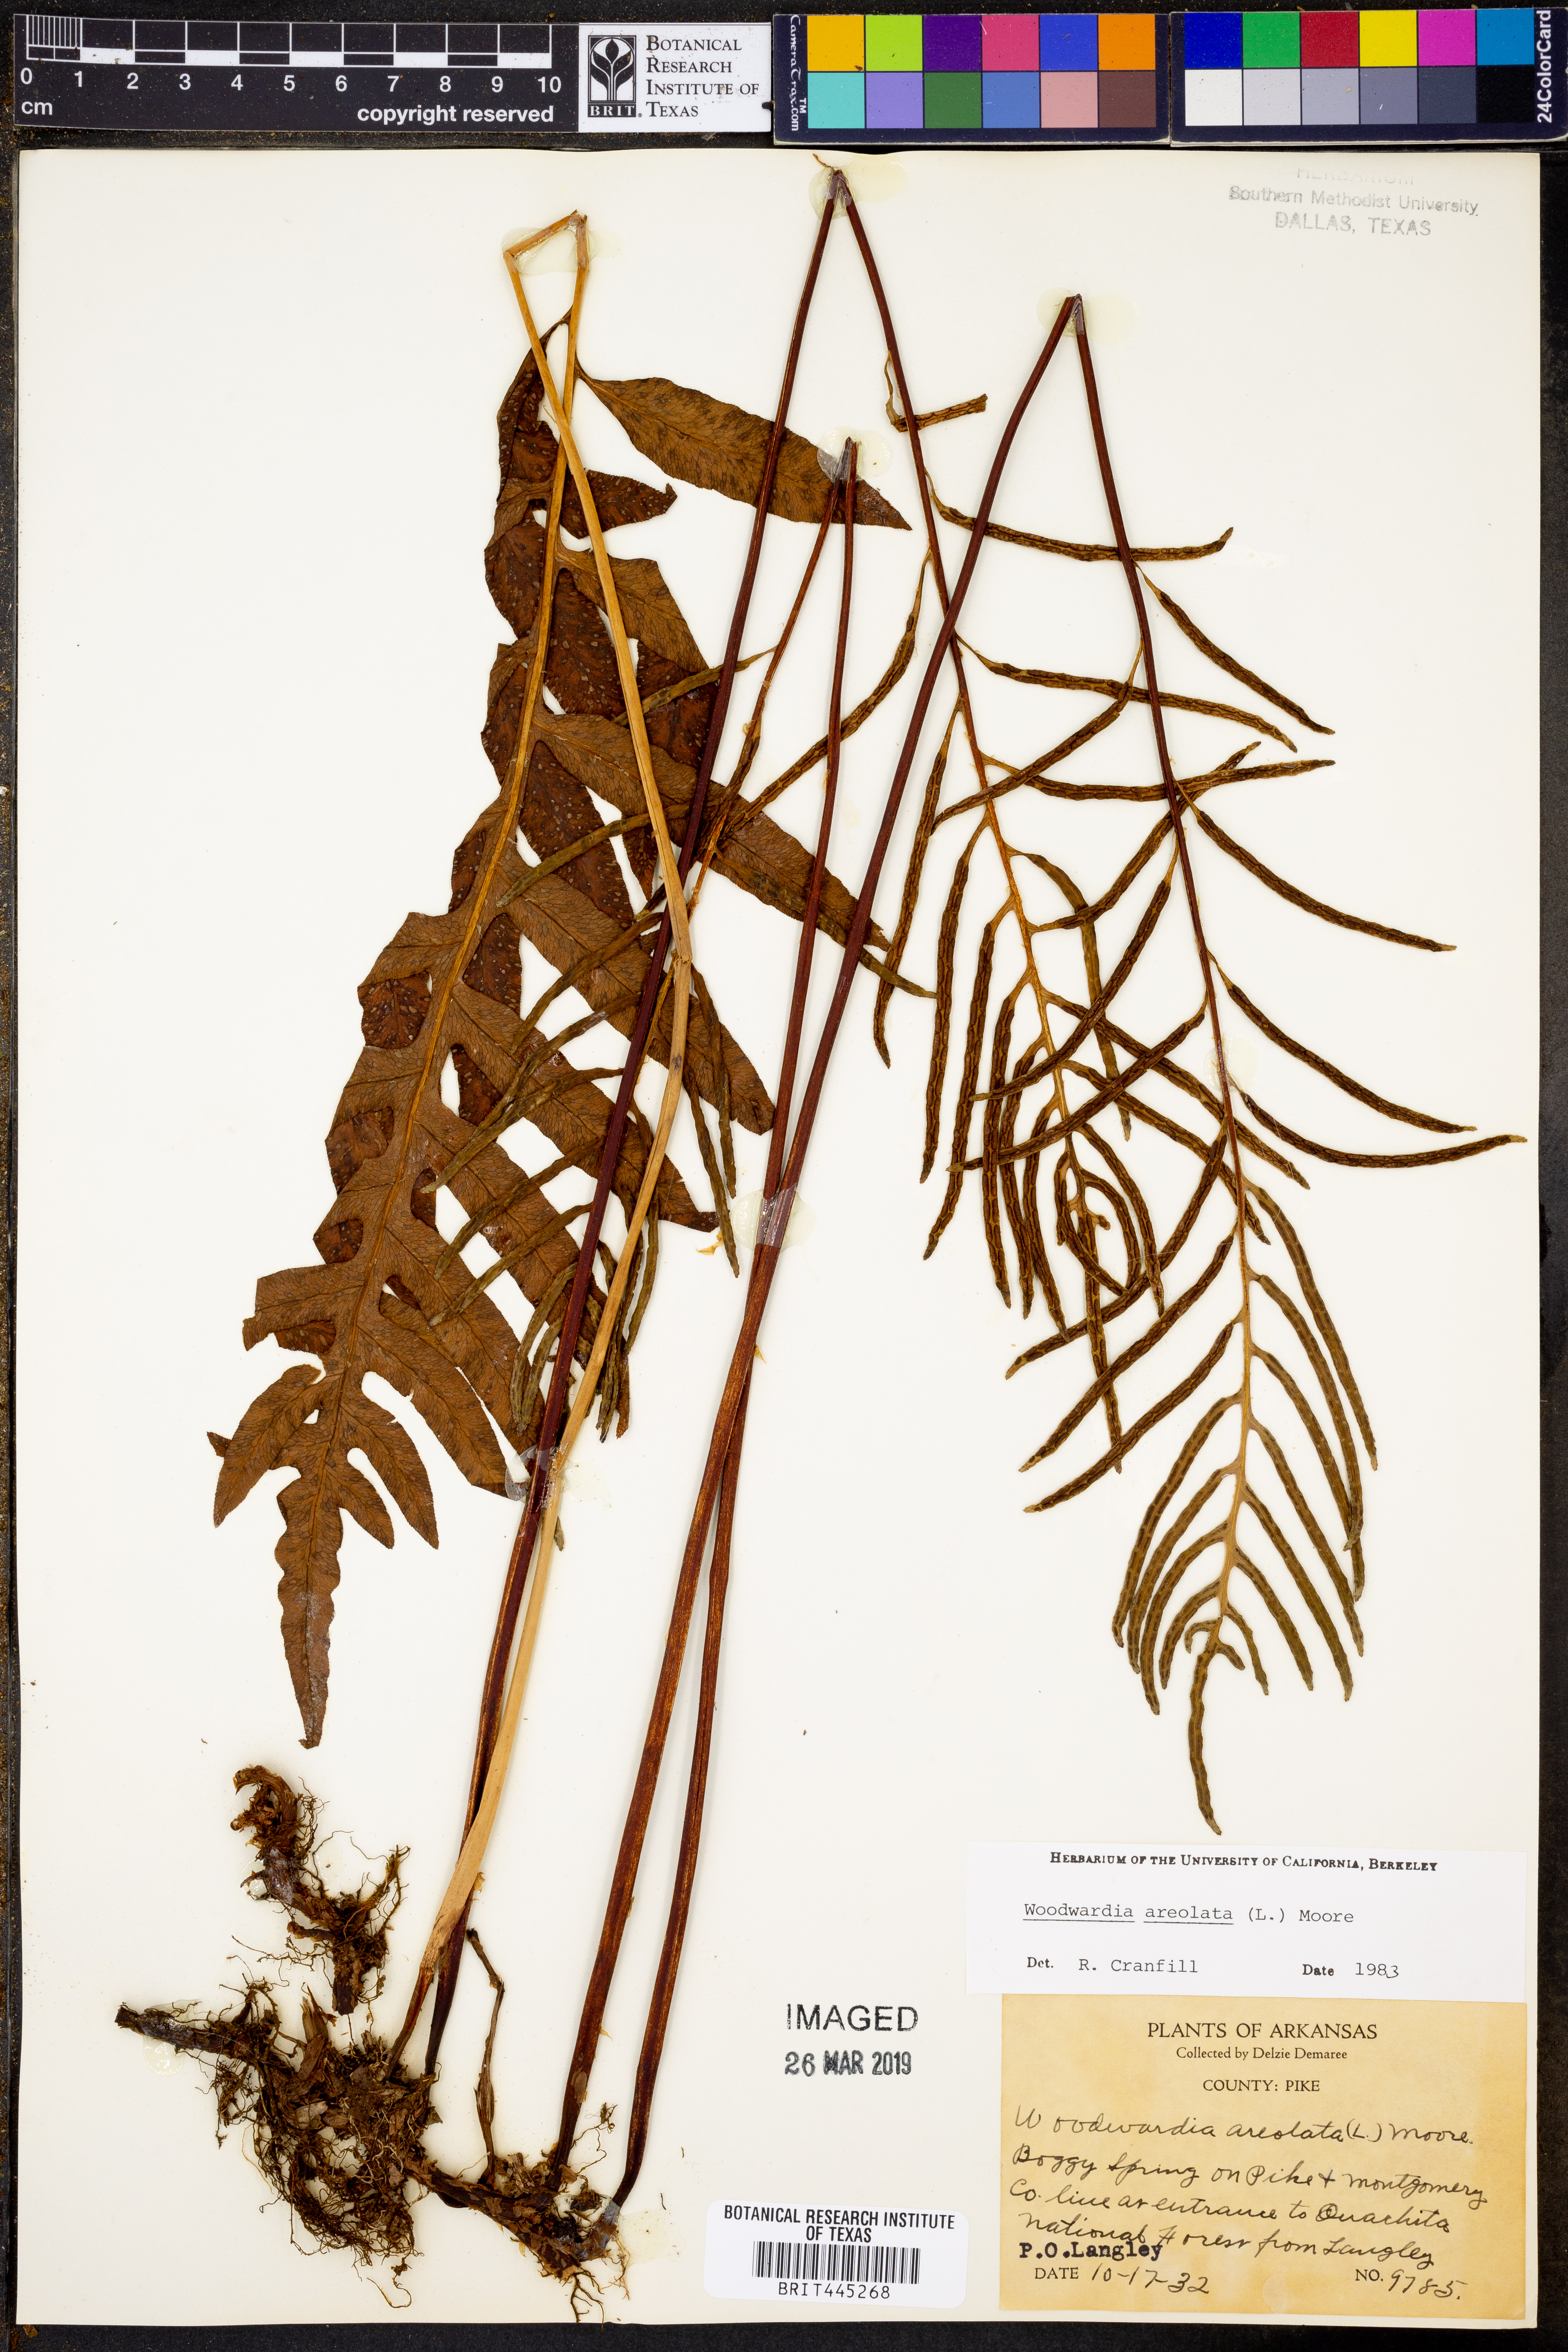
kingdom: Plantae
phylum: Tracheophyta
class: Polypodiopsida
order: Polypodiales
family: Blechnaceae
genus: Lorinseria
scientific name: Lorinseria areolata
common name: Dwarf chain fern
